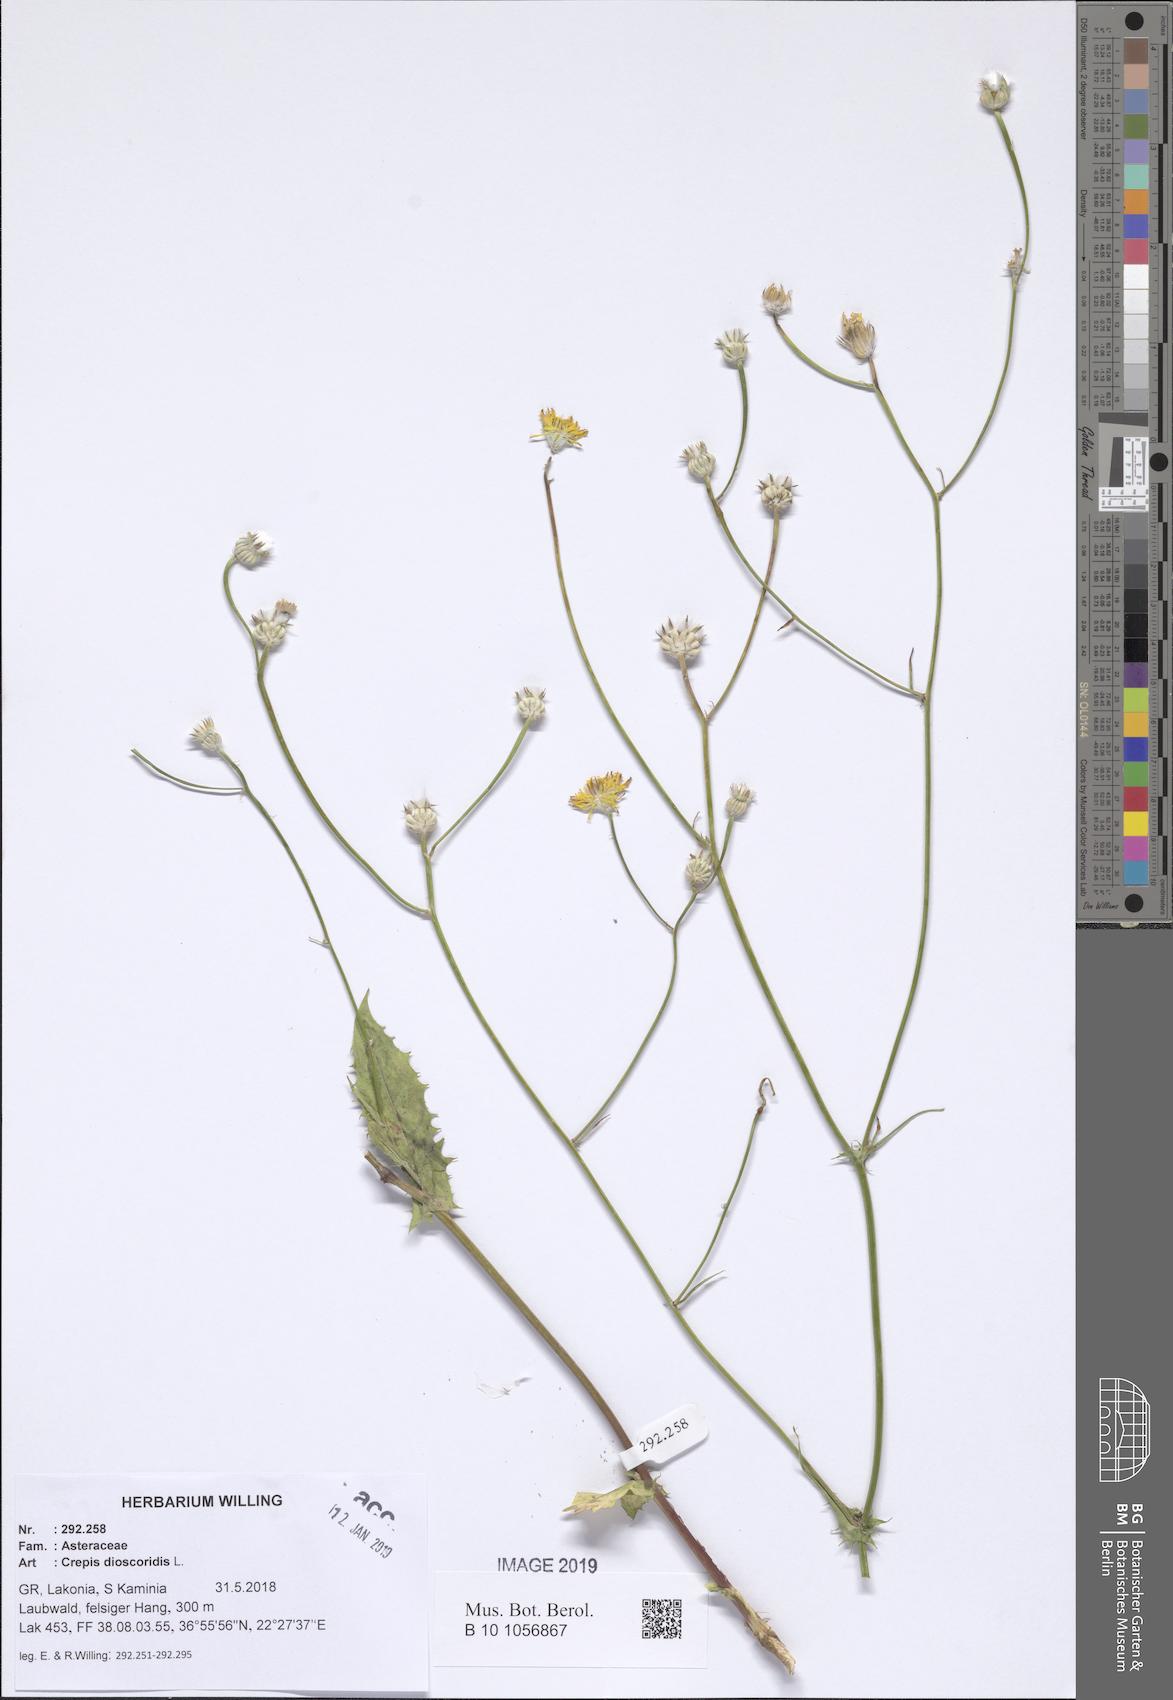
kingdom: Plantae
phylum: Tracheophyta
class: Magnoliopsida
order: Asterales
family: Asteraceae
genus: Crepis
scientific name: Crepis dioscoridis
